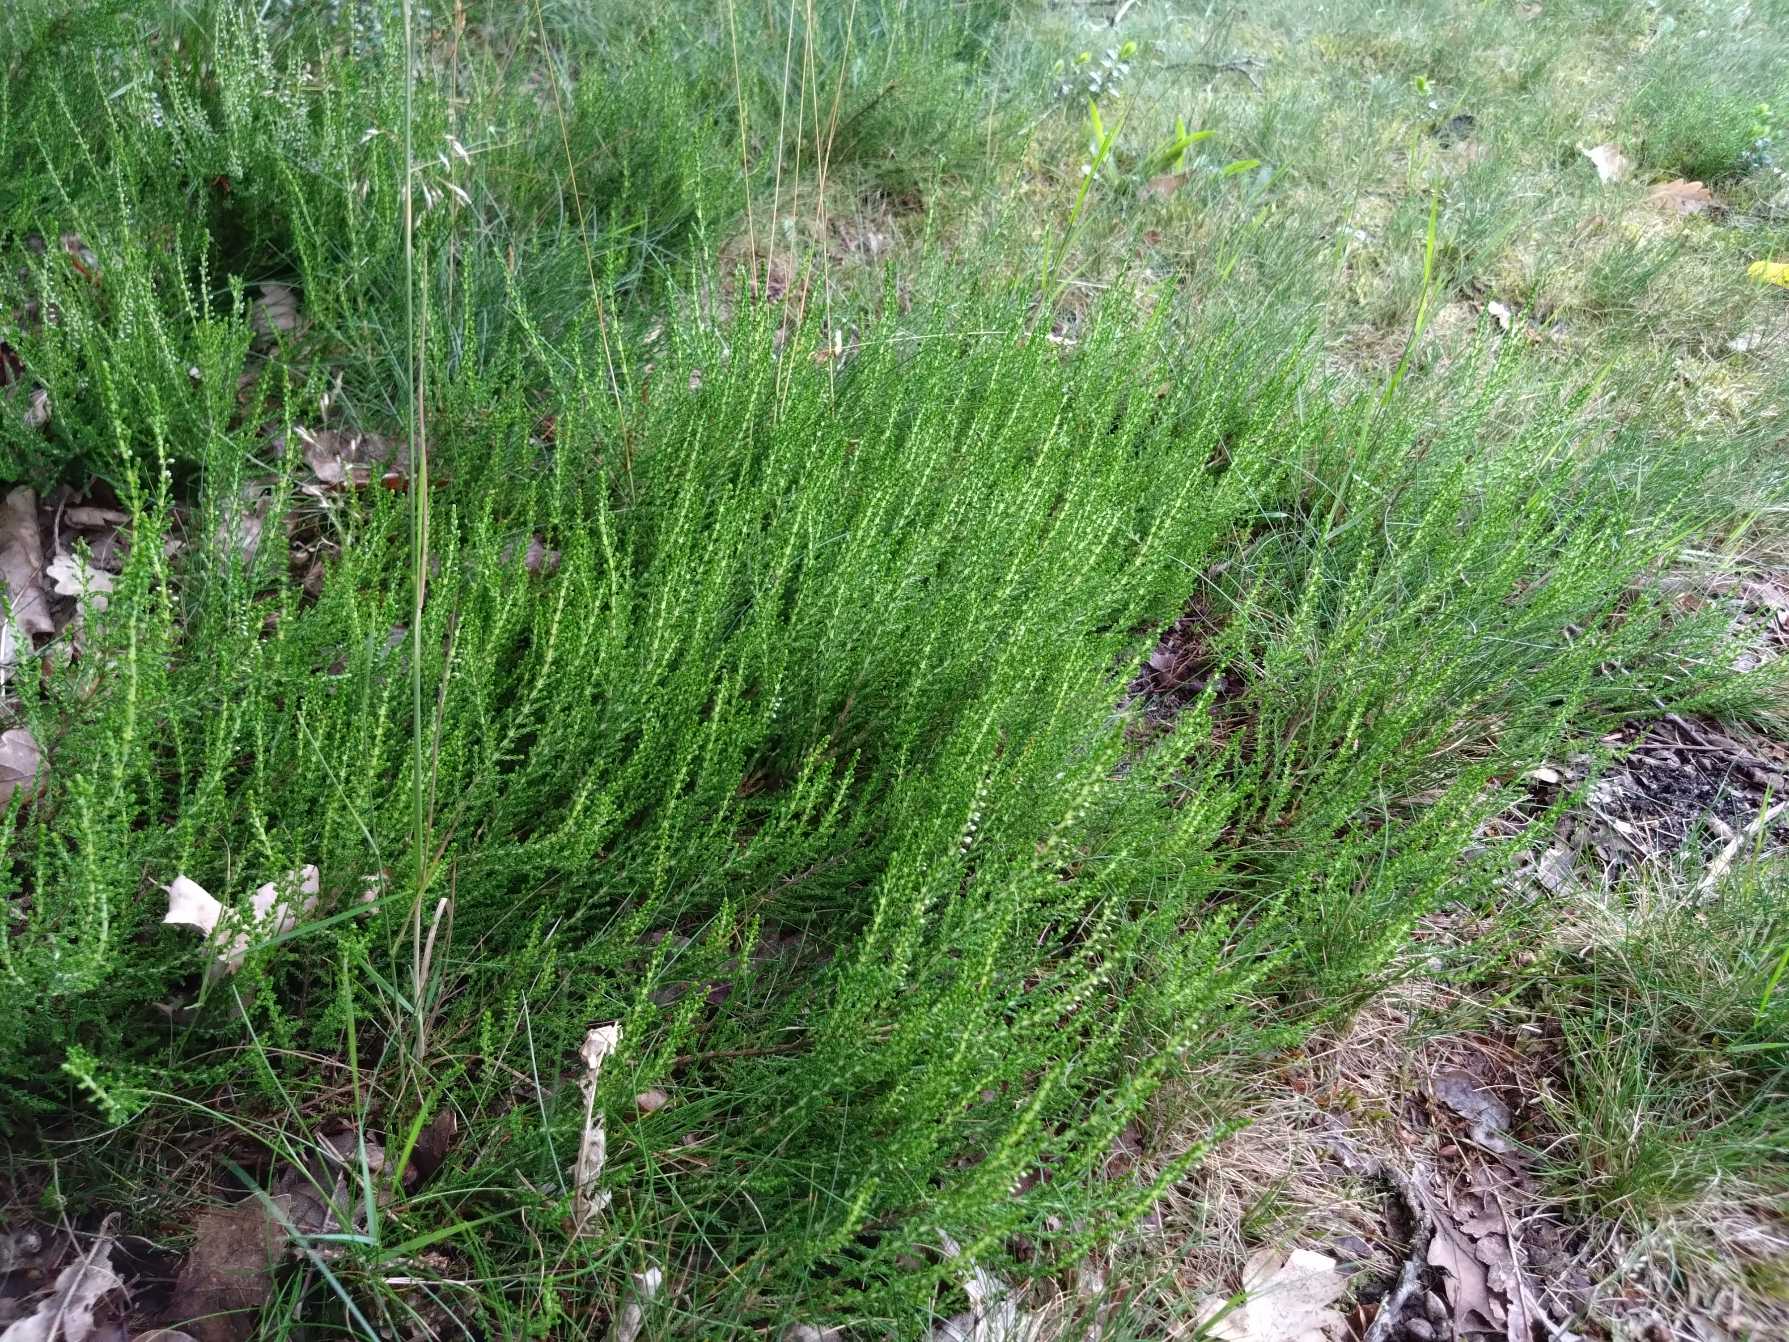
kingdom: Plantae
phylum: Tracheophyta
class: Magnoliopsida
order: Ericales
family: Ericaceae
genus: Calluna
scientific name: Calluna vulgaris
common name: Hedelyng
